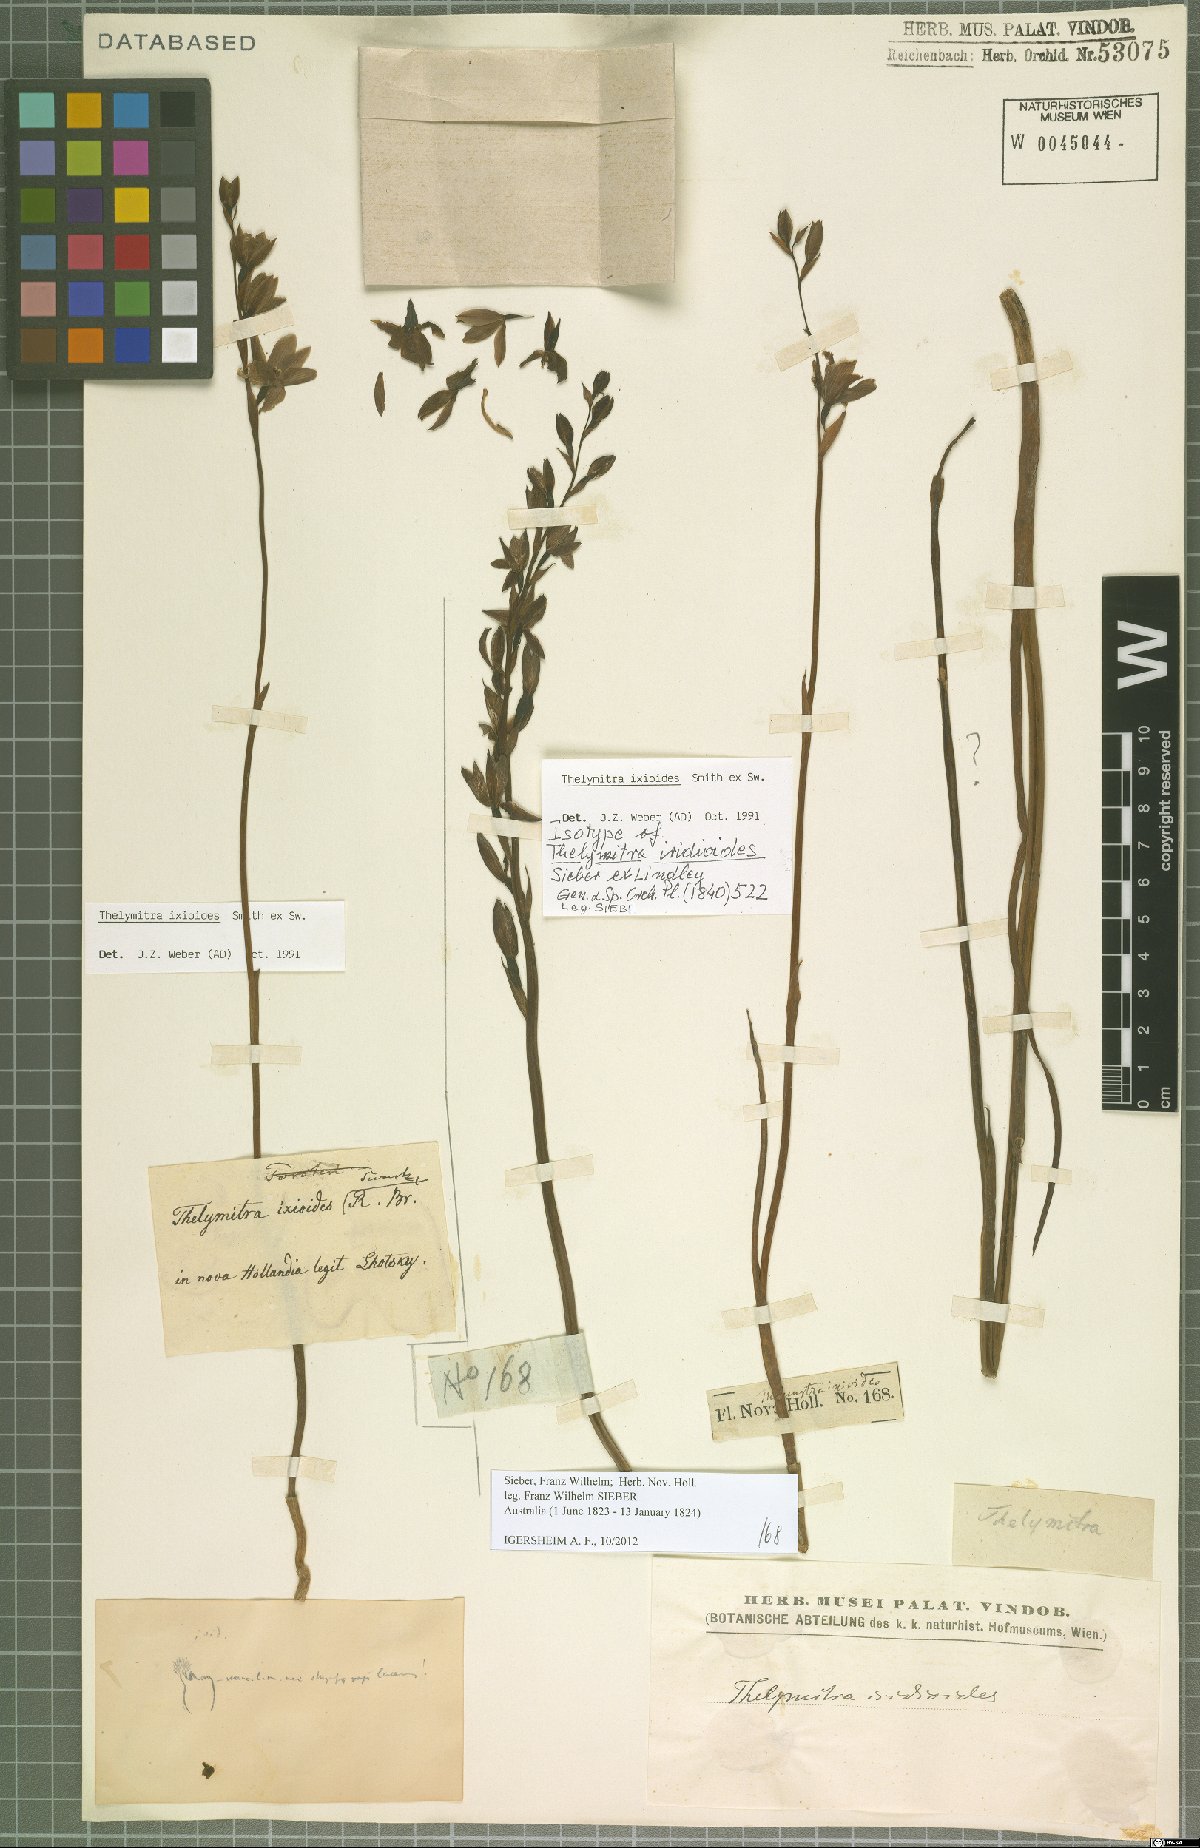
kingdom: Plantae
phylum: Tracheophyta
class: Liliopsida
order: Asparagales
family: Orchidaceae
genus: Thelymitra
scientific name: Thelymitra ixioides
